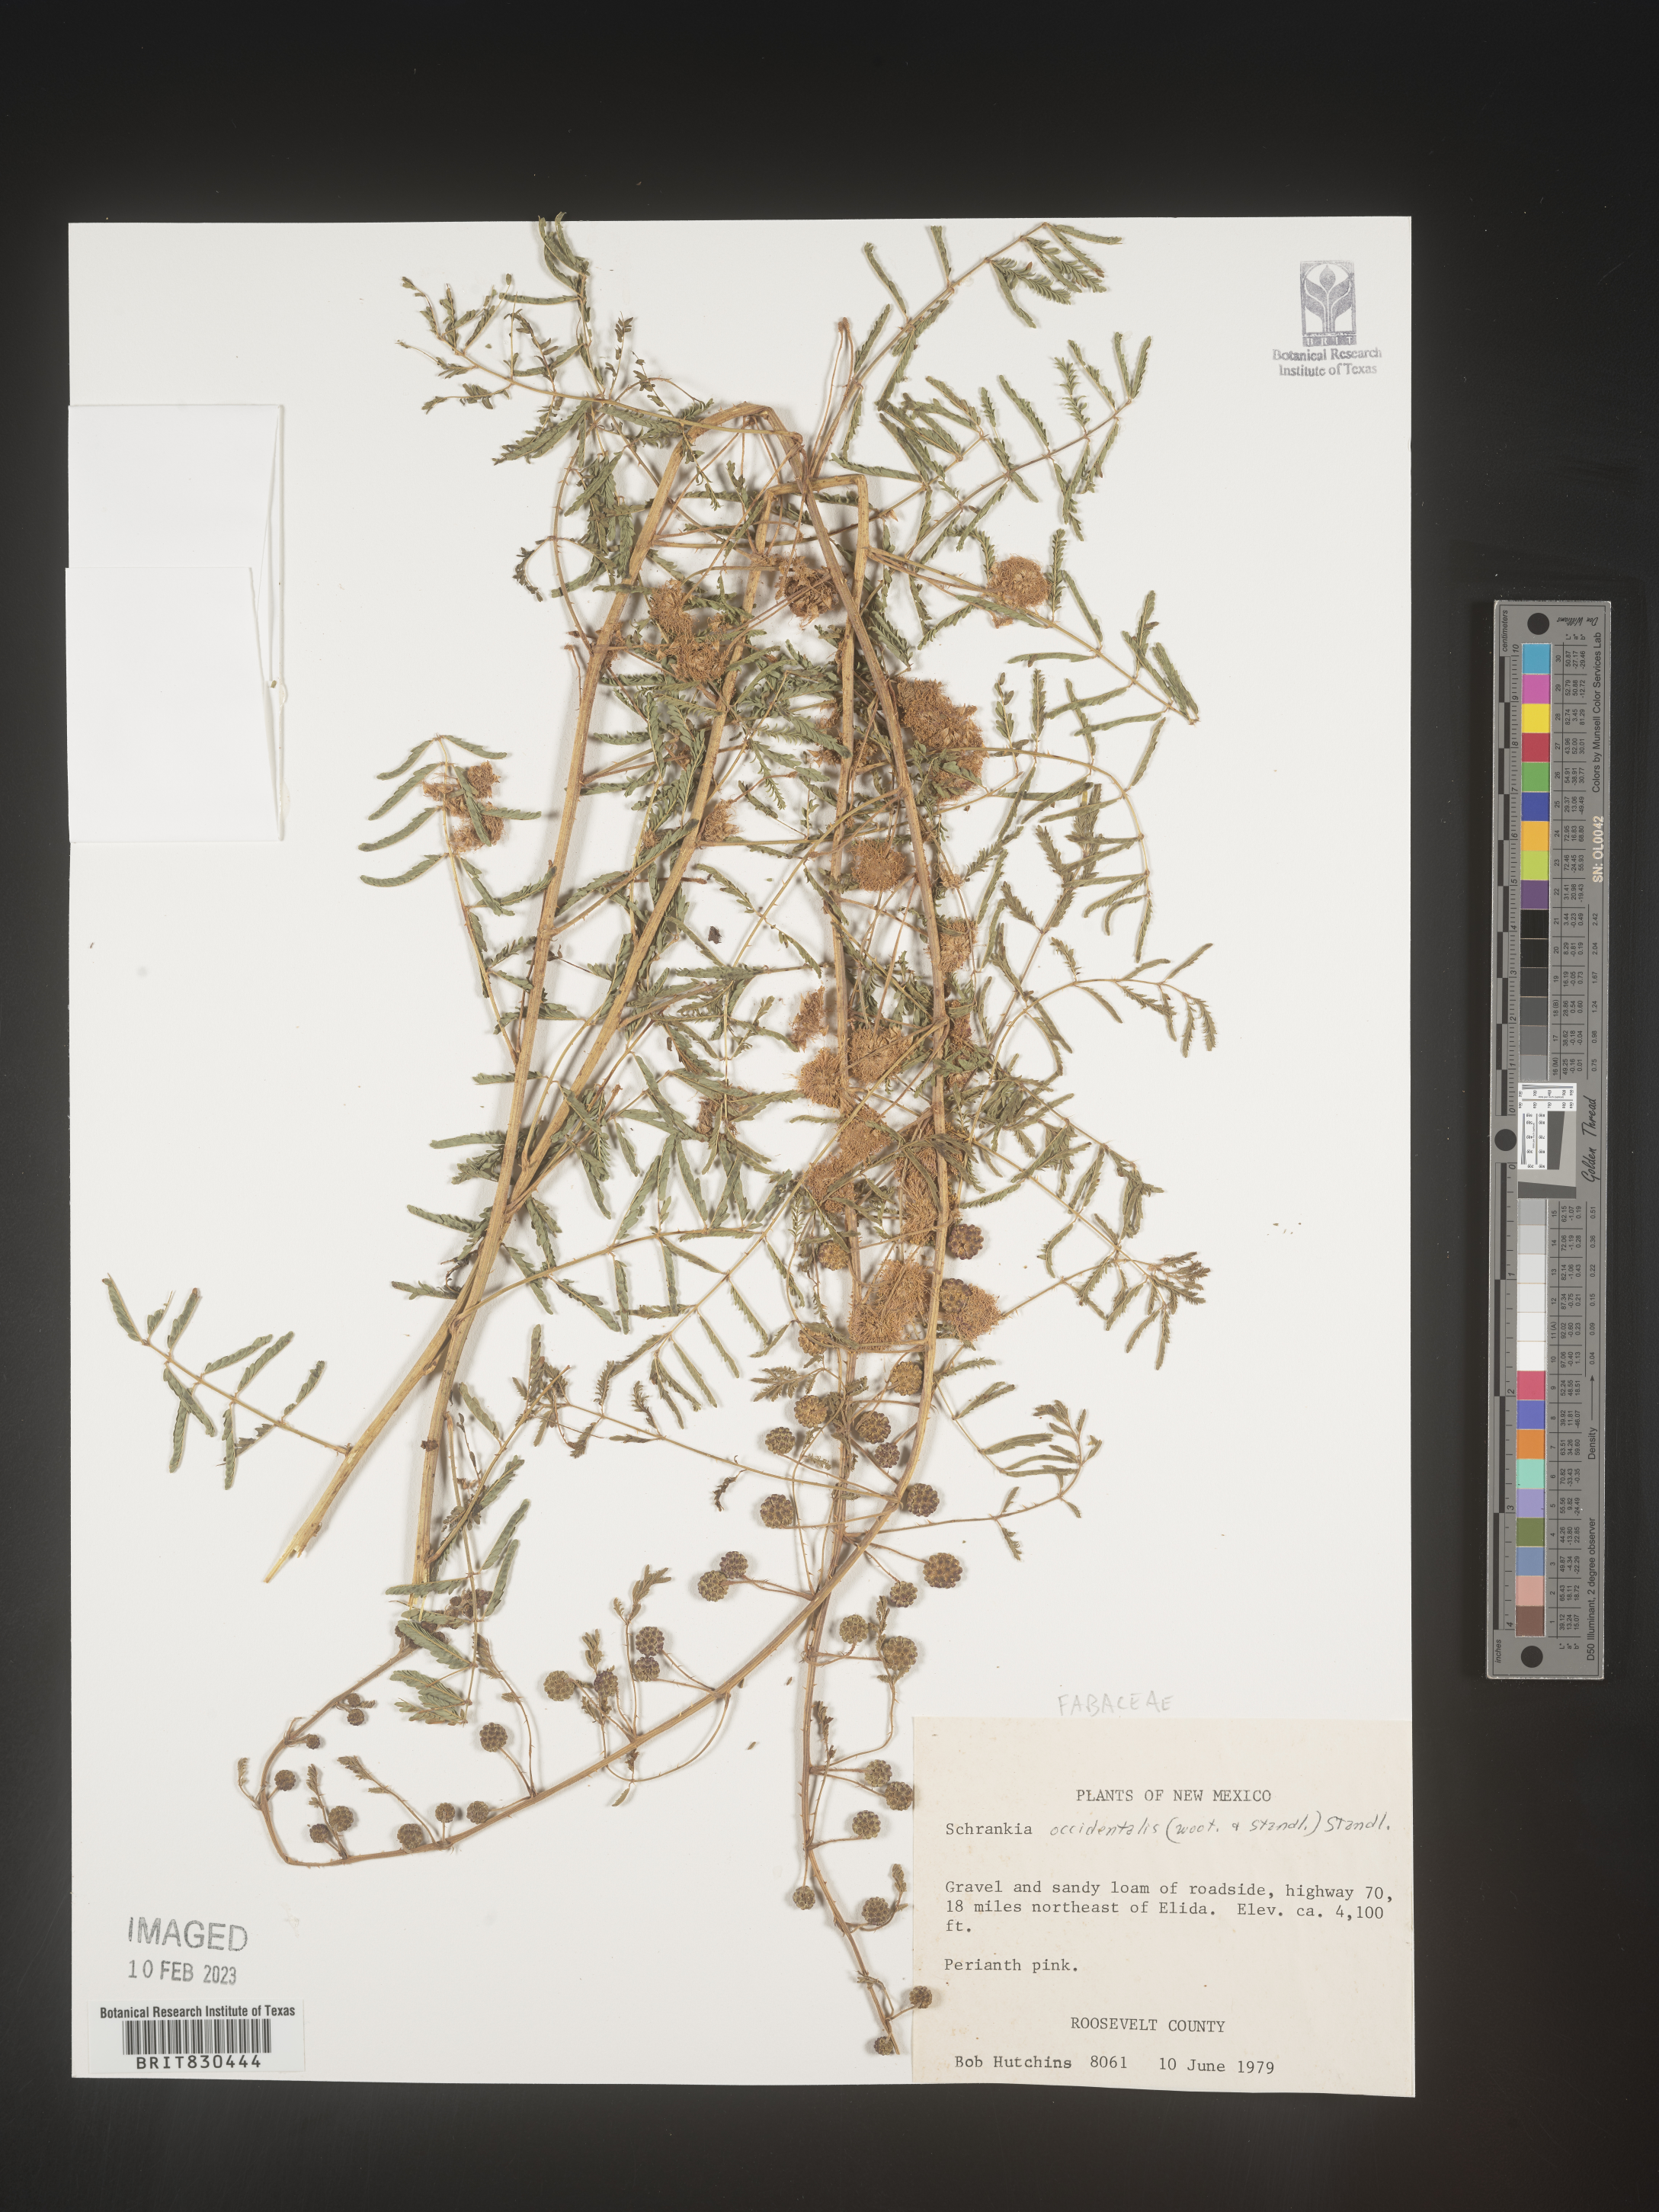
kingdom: Plantae
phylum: Tracheophyta
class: Magnoliopsida
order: Fabales
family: Fabaceae
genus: Mimosa
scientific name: Mimosa
